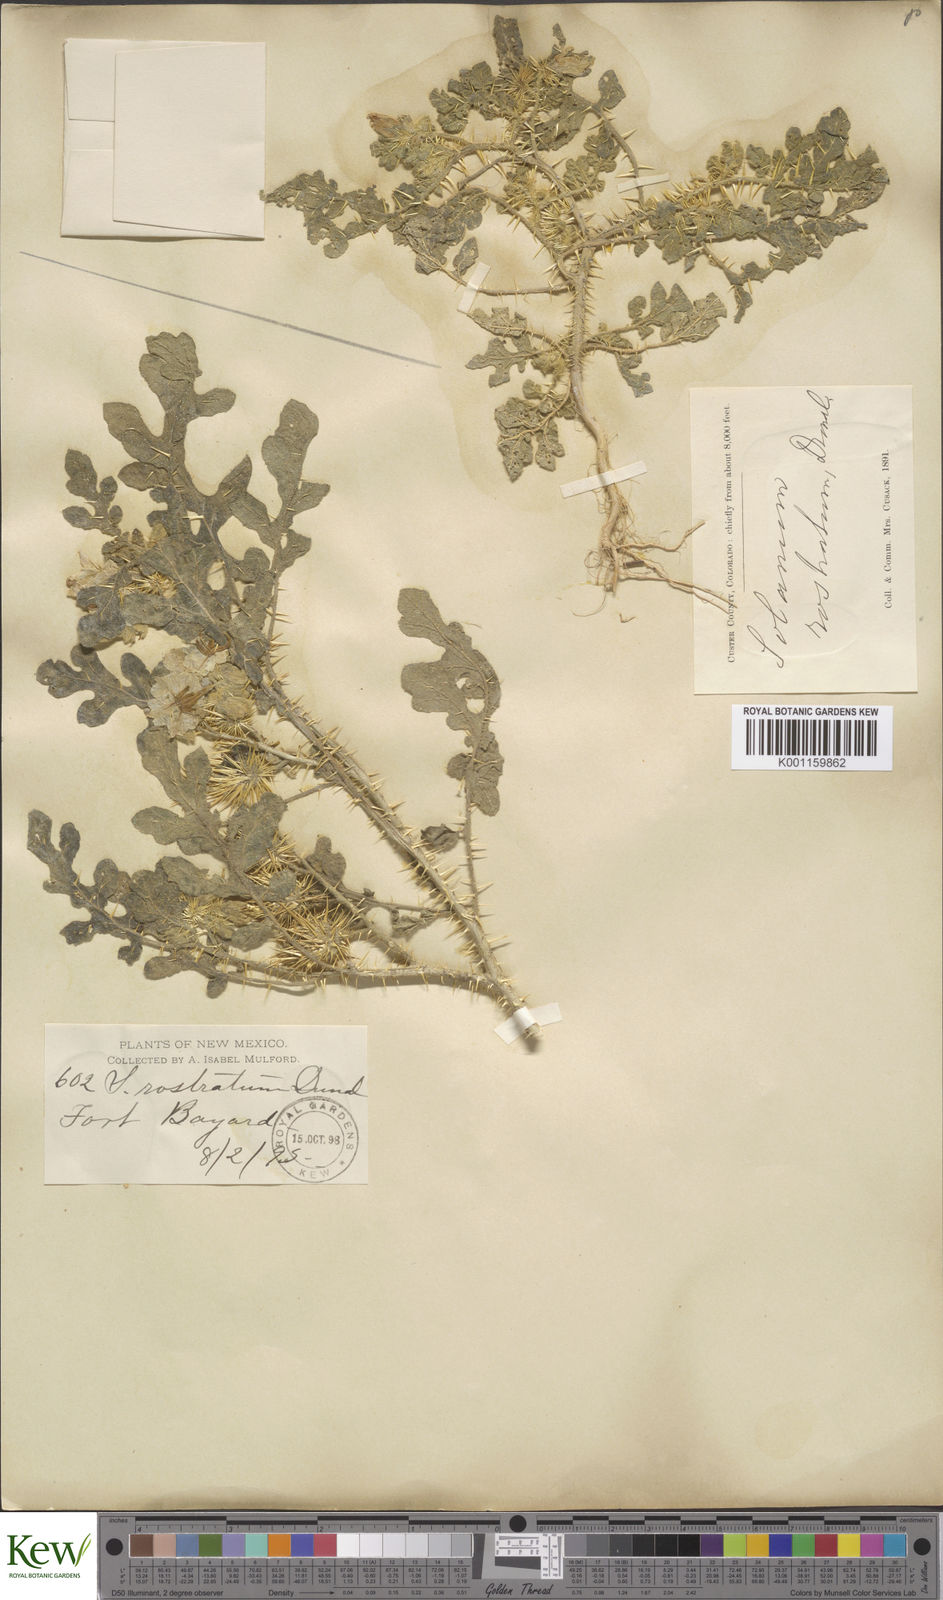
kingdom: Plantae
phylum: Tracheophyta
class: Magnoliopsida
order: Solanales
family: Solanaceae
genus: Solanum
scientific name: Solanum angustifolium
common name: Buffalobur nightshade
